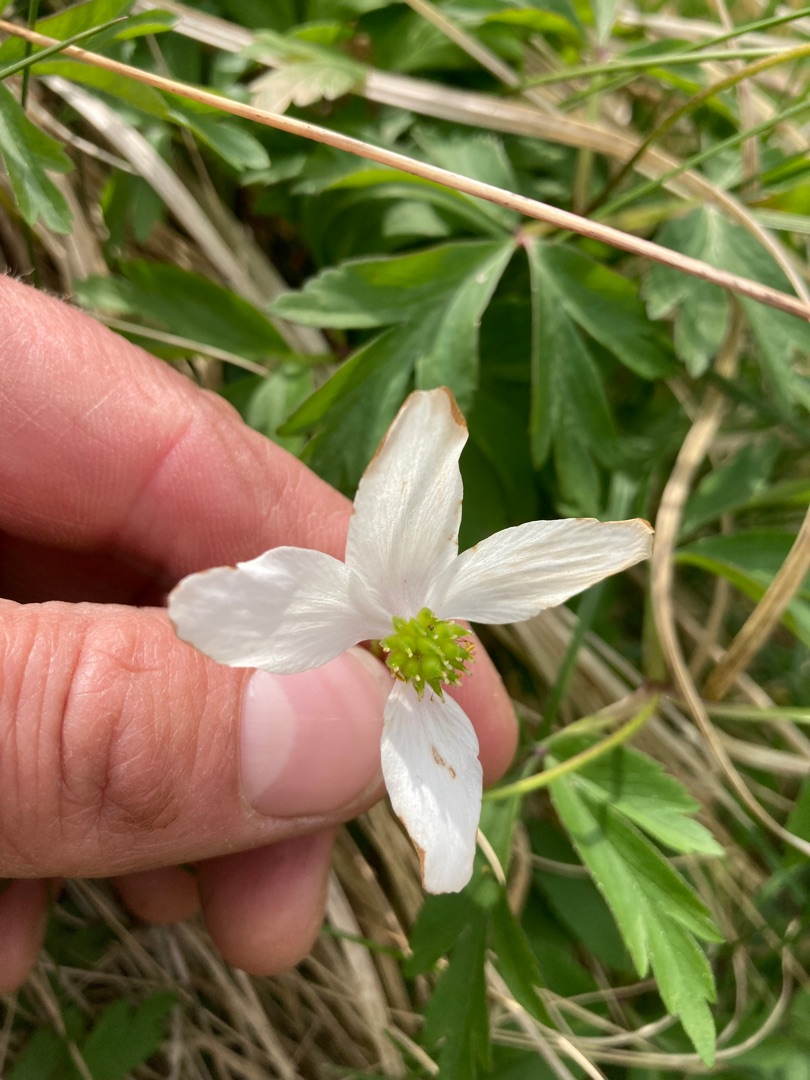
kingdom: Plantae
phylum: Tracheophyta
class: Magnoliopsida
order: Ranunculales
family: Ranunculaceae
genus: Anemone
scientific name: Anemone nemorosa
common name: Hvid anemone
